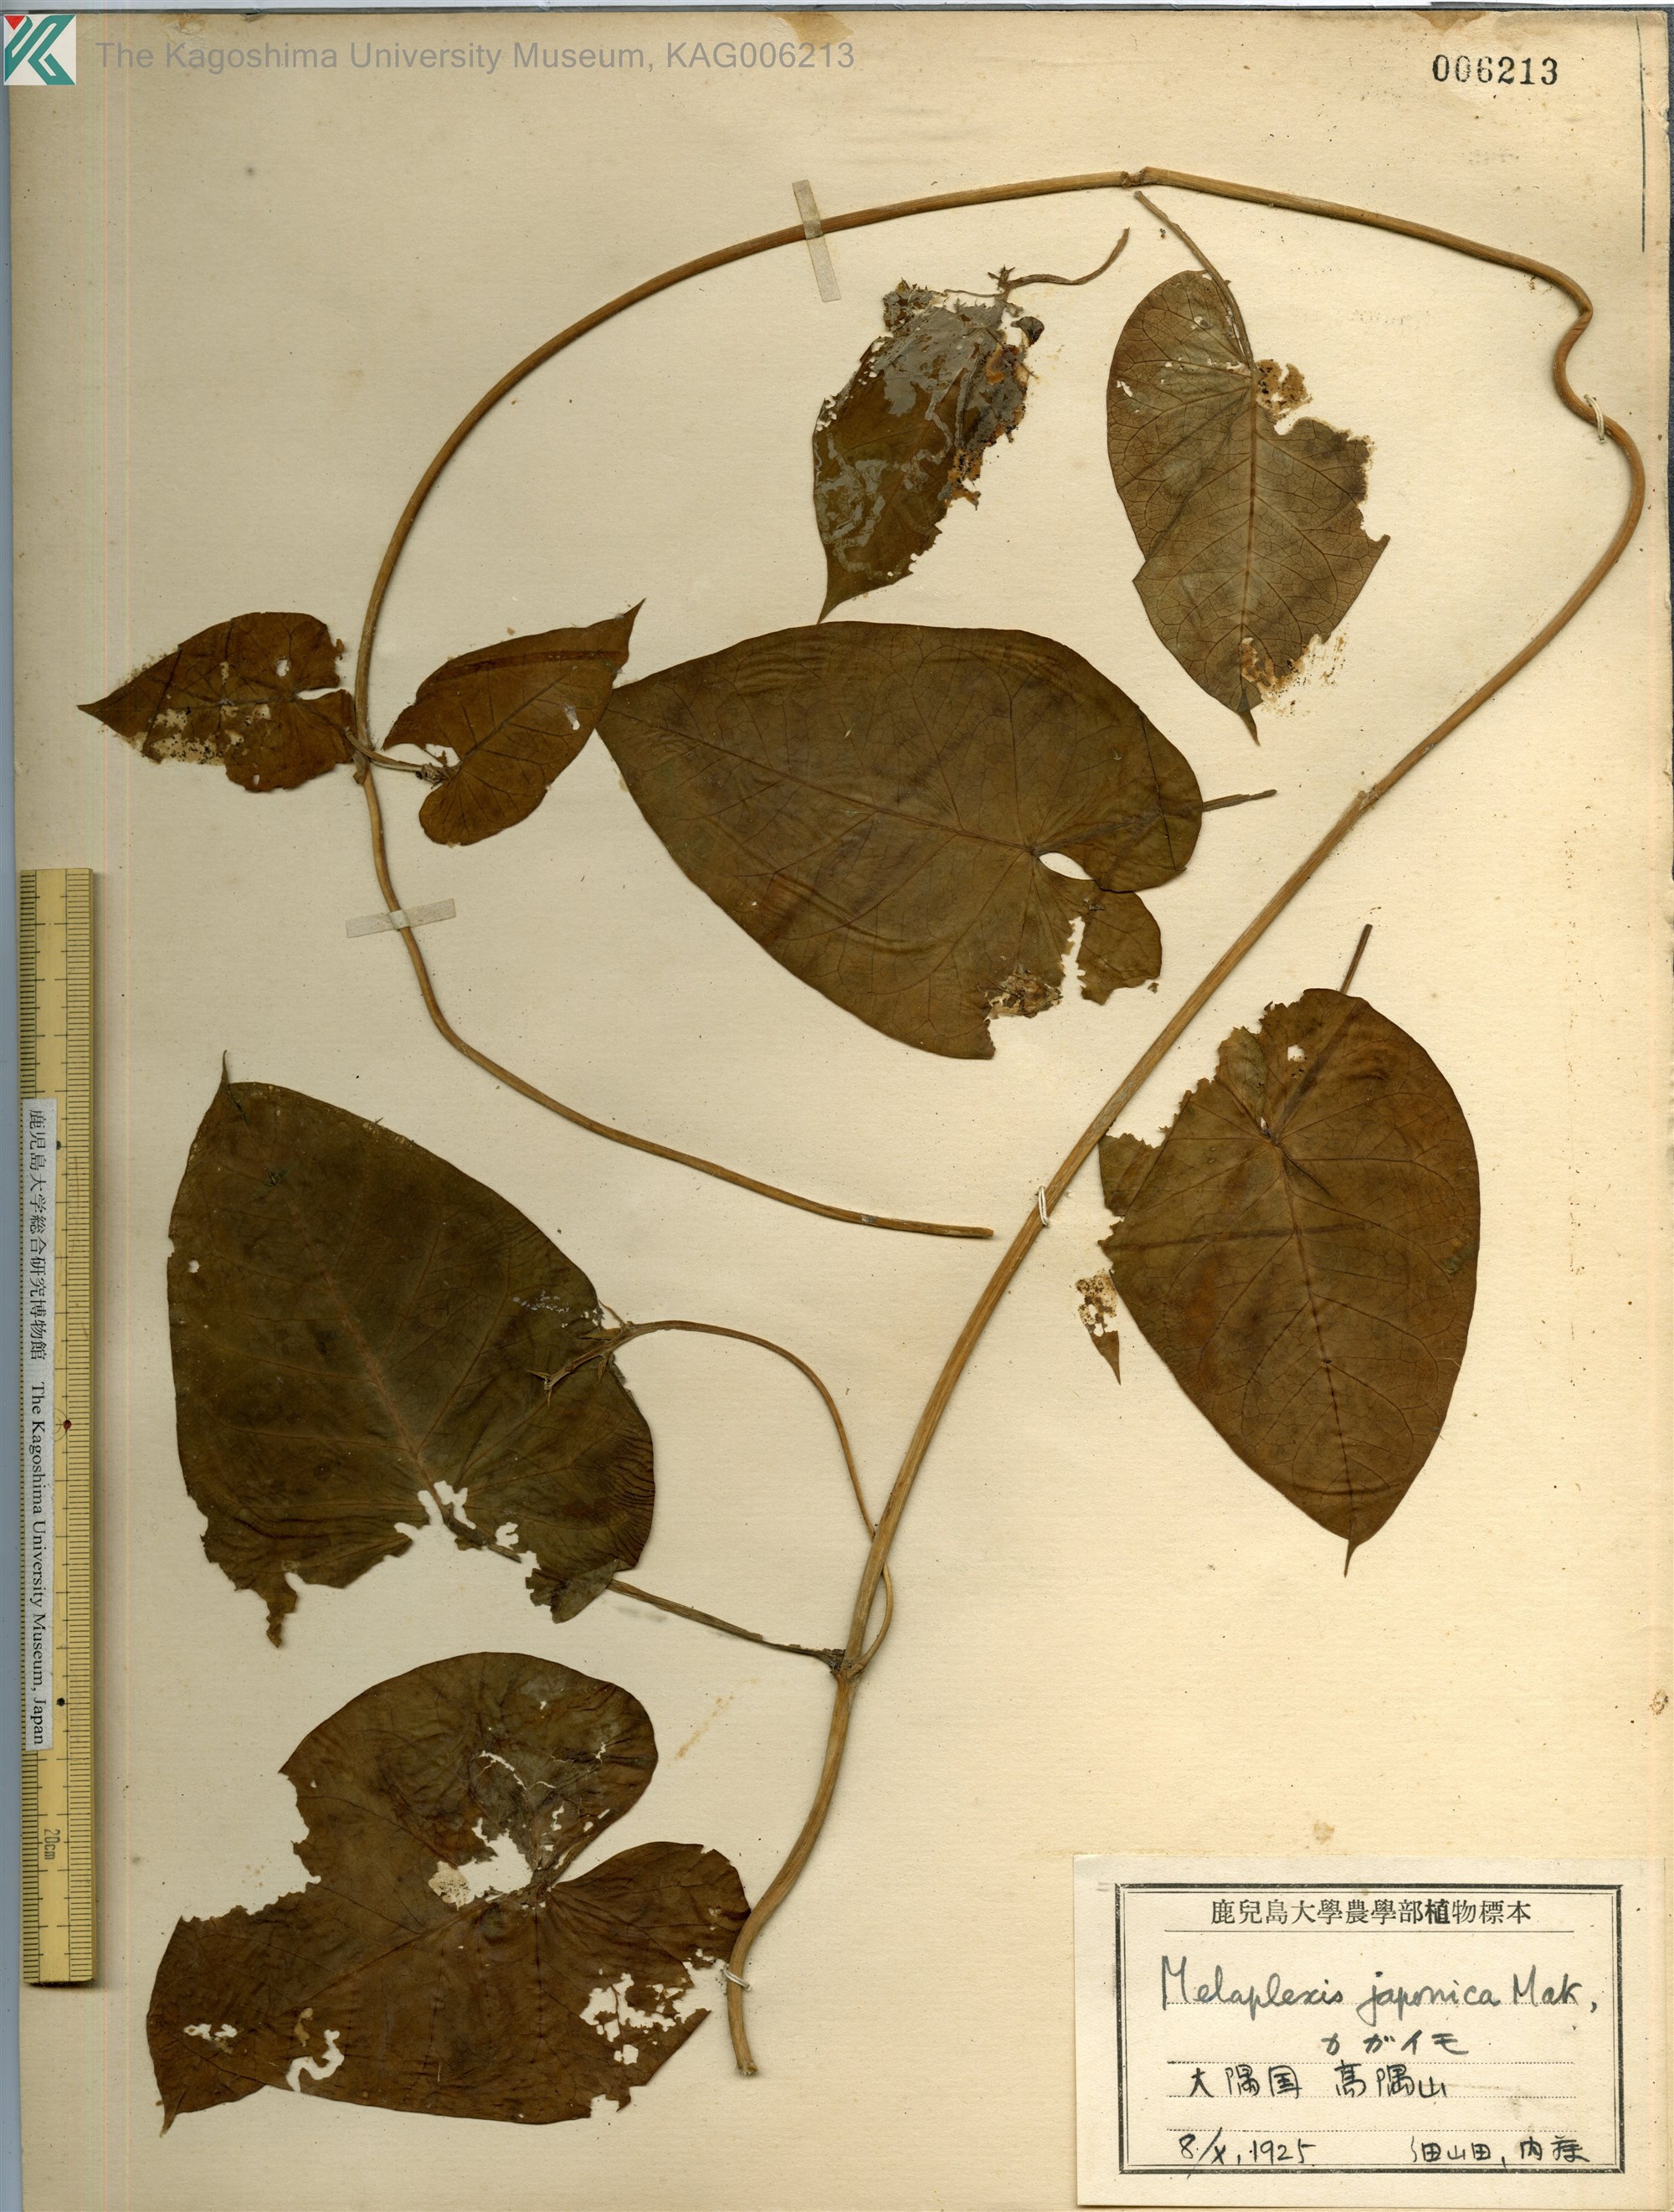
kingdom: Plantae
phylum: Tracheophyta
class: Magnoliopsida
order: Gentianales
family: Apocynaceae
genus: Cynanchum
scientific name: Cynanchum rostellatum
